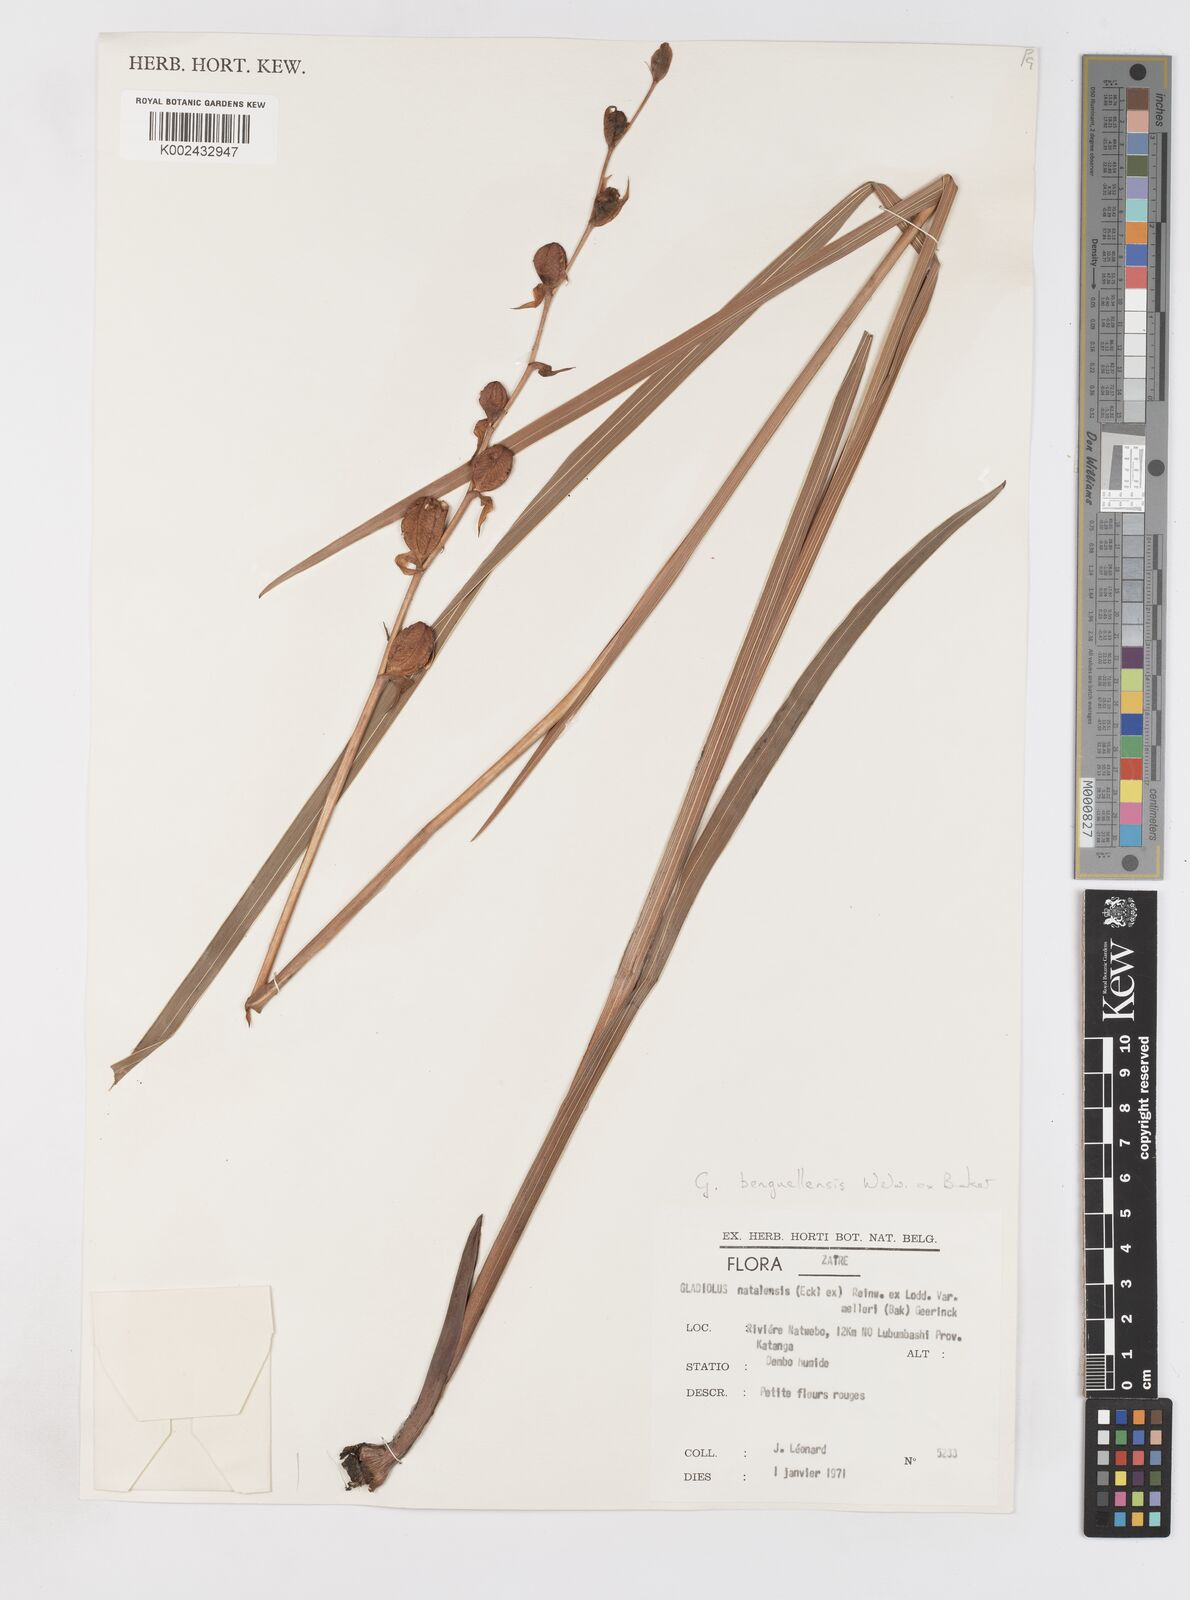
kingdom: Plantae
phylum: Tracheophyta
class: Liliopsida
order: Asparagales
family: Iridaceae
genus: Gladiolus
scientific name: Gladiolus benguellensis
